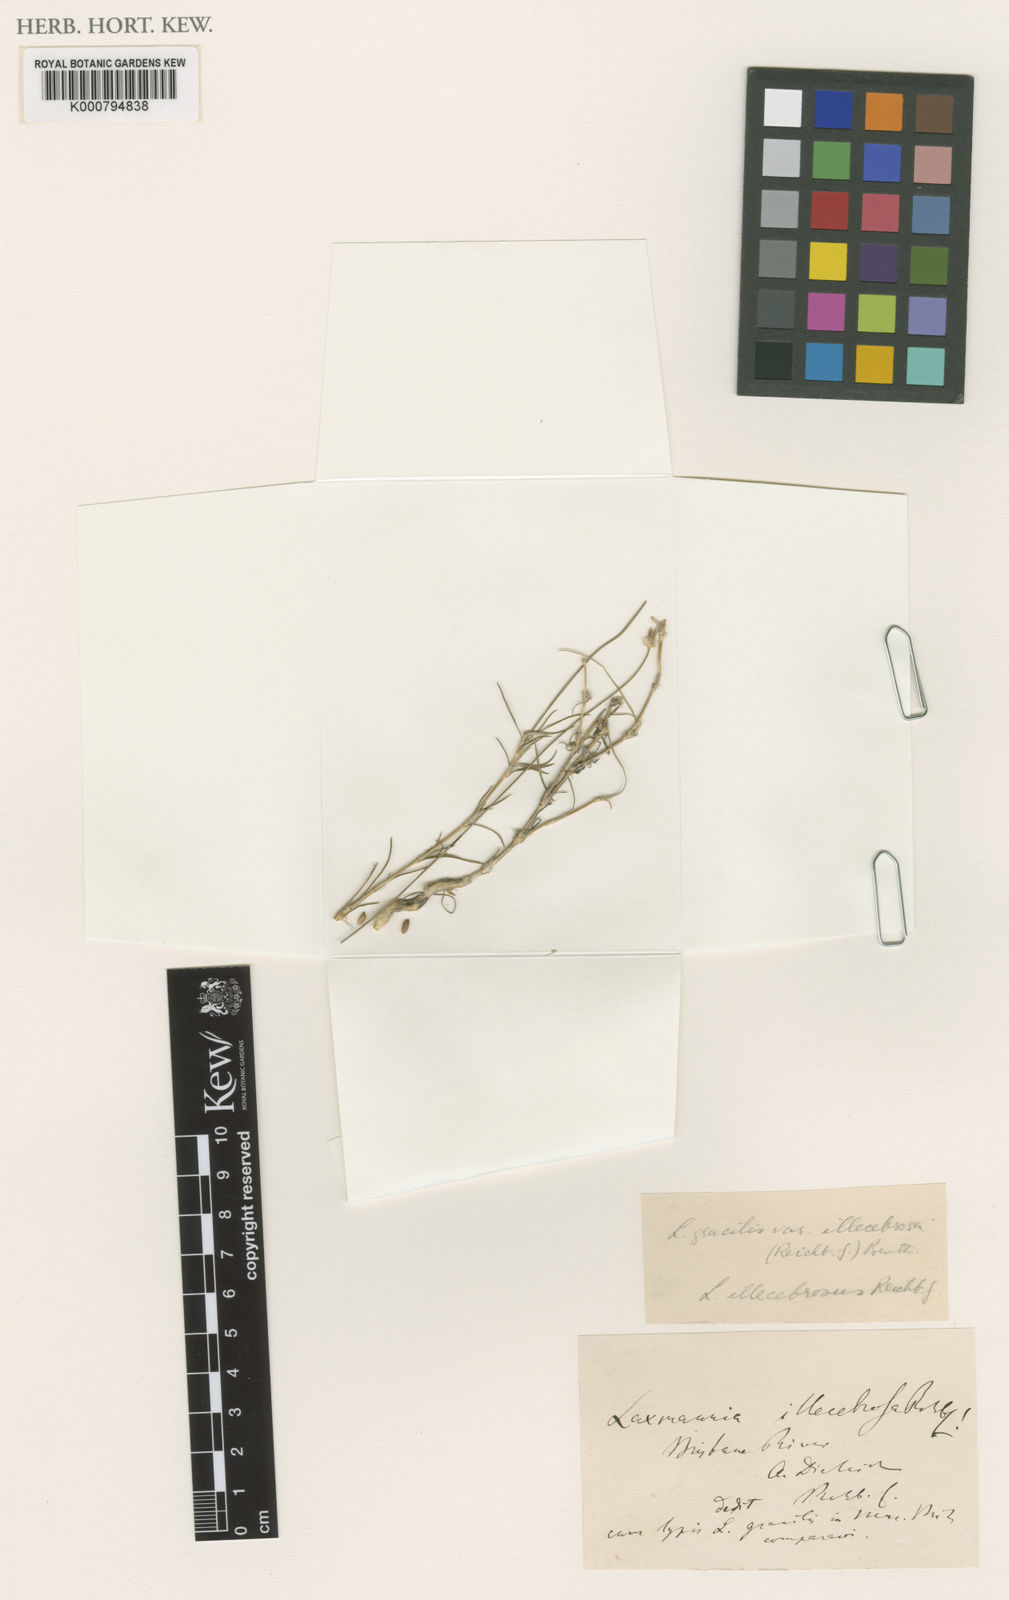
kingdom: Plantae
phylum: Tracheophyta
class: Liliopsida
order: Asparagales
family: Asparagaceae
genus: Laxmannia
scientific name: Laxmannia gracilis
